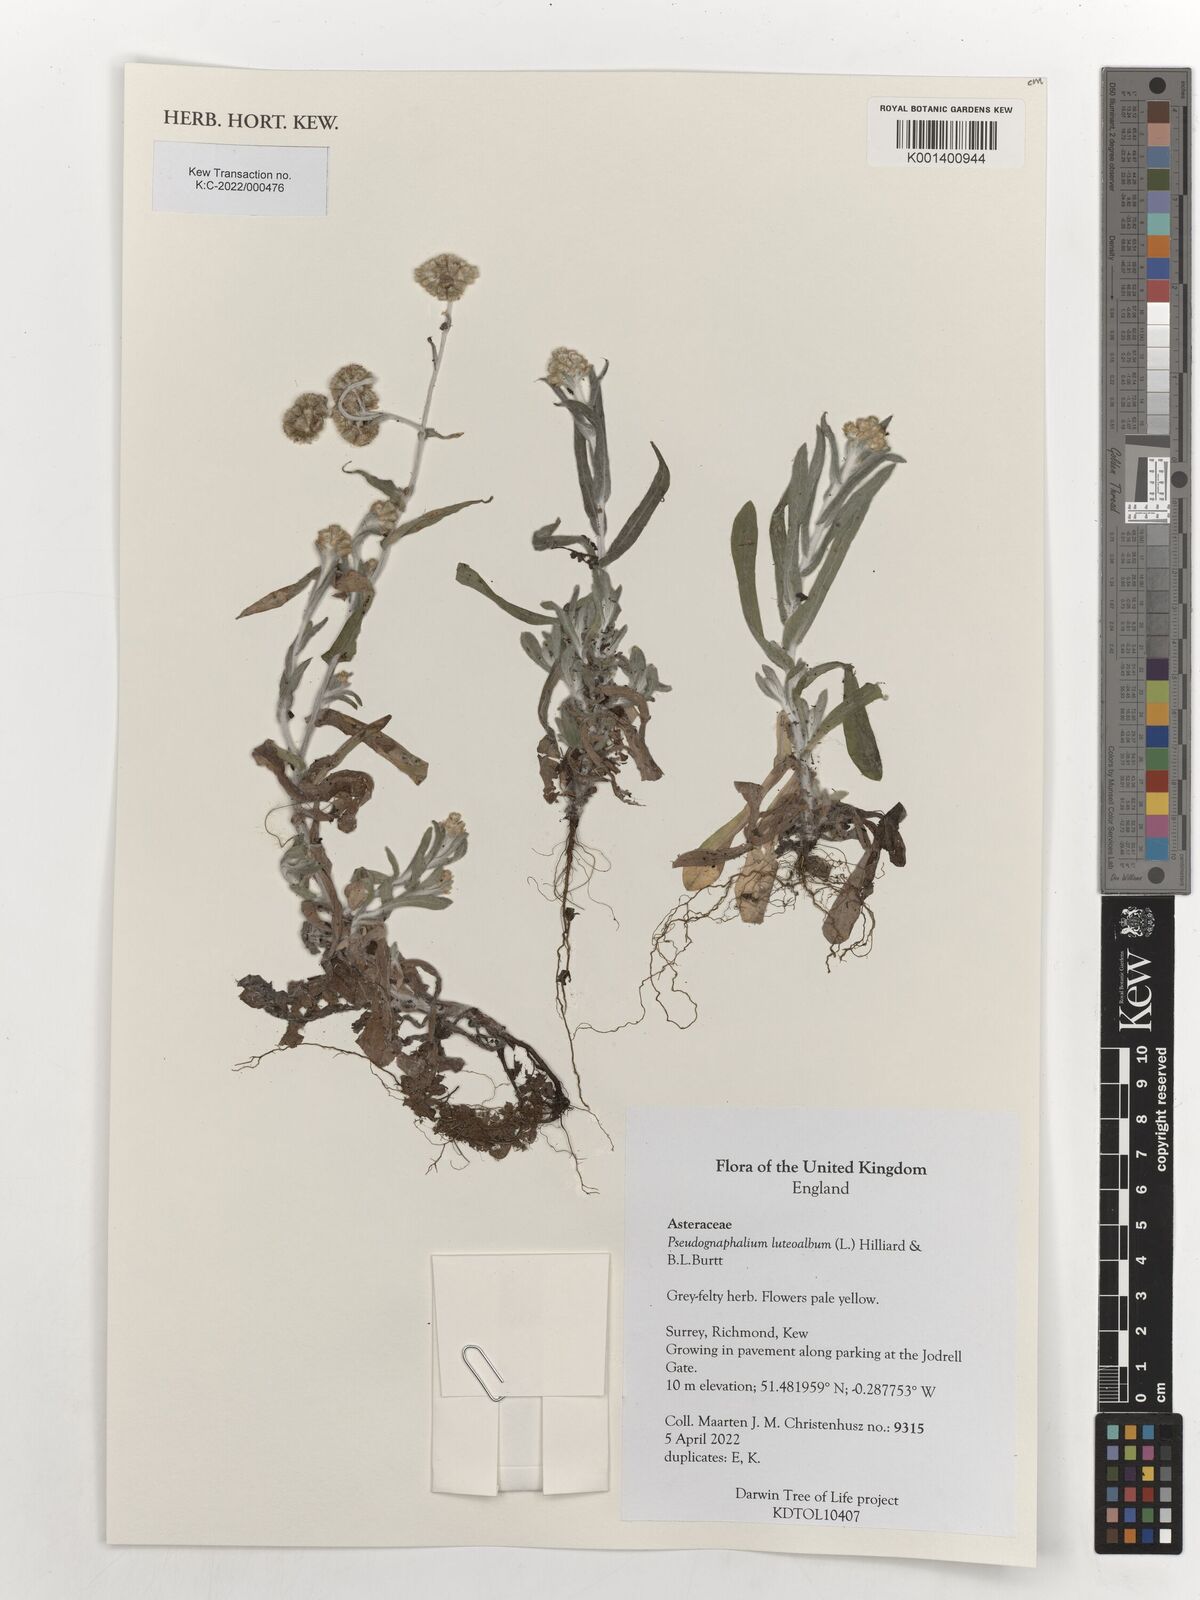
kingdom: Plantae
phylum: Tracheophyta
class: Magnoliopsida
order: Asterales
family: Asteraceae
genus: Helichrysum
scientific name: Helichrysum luteoalbum
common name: Daisy
